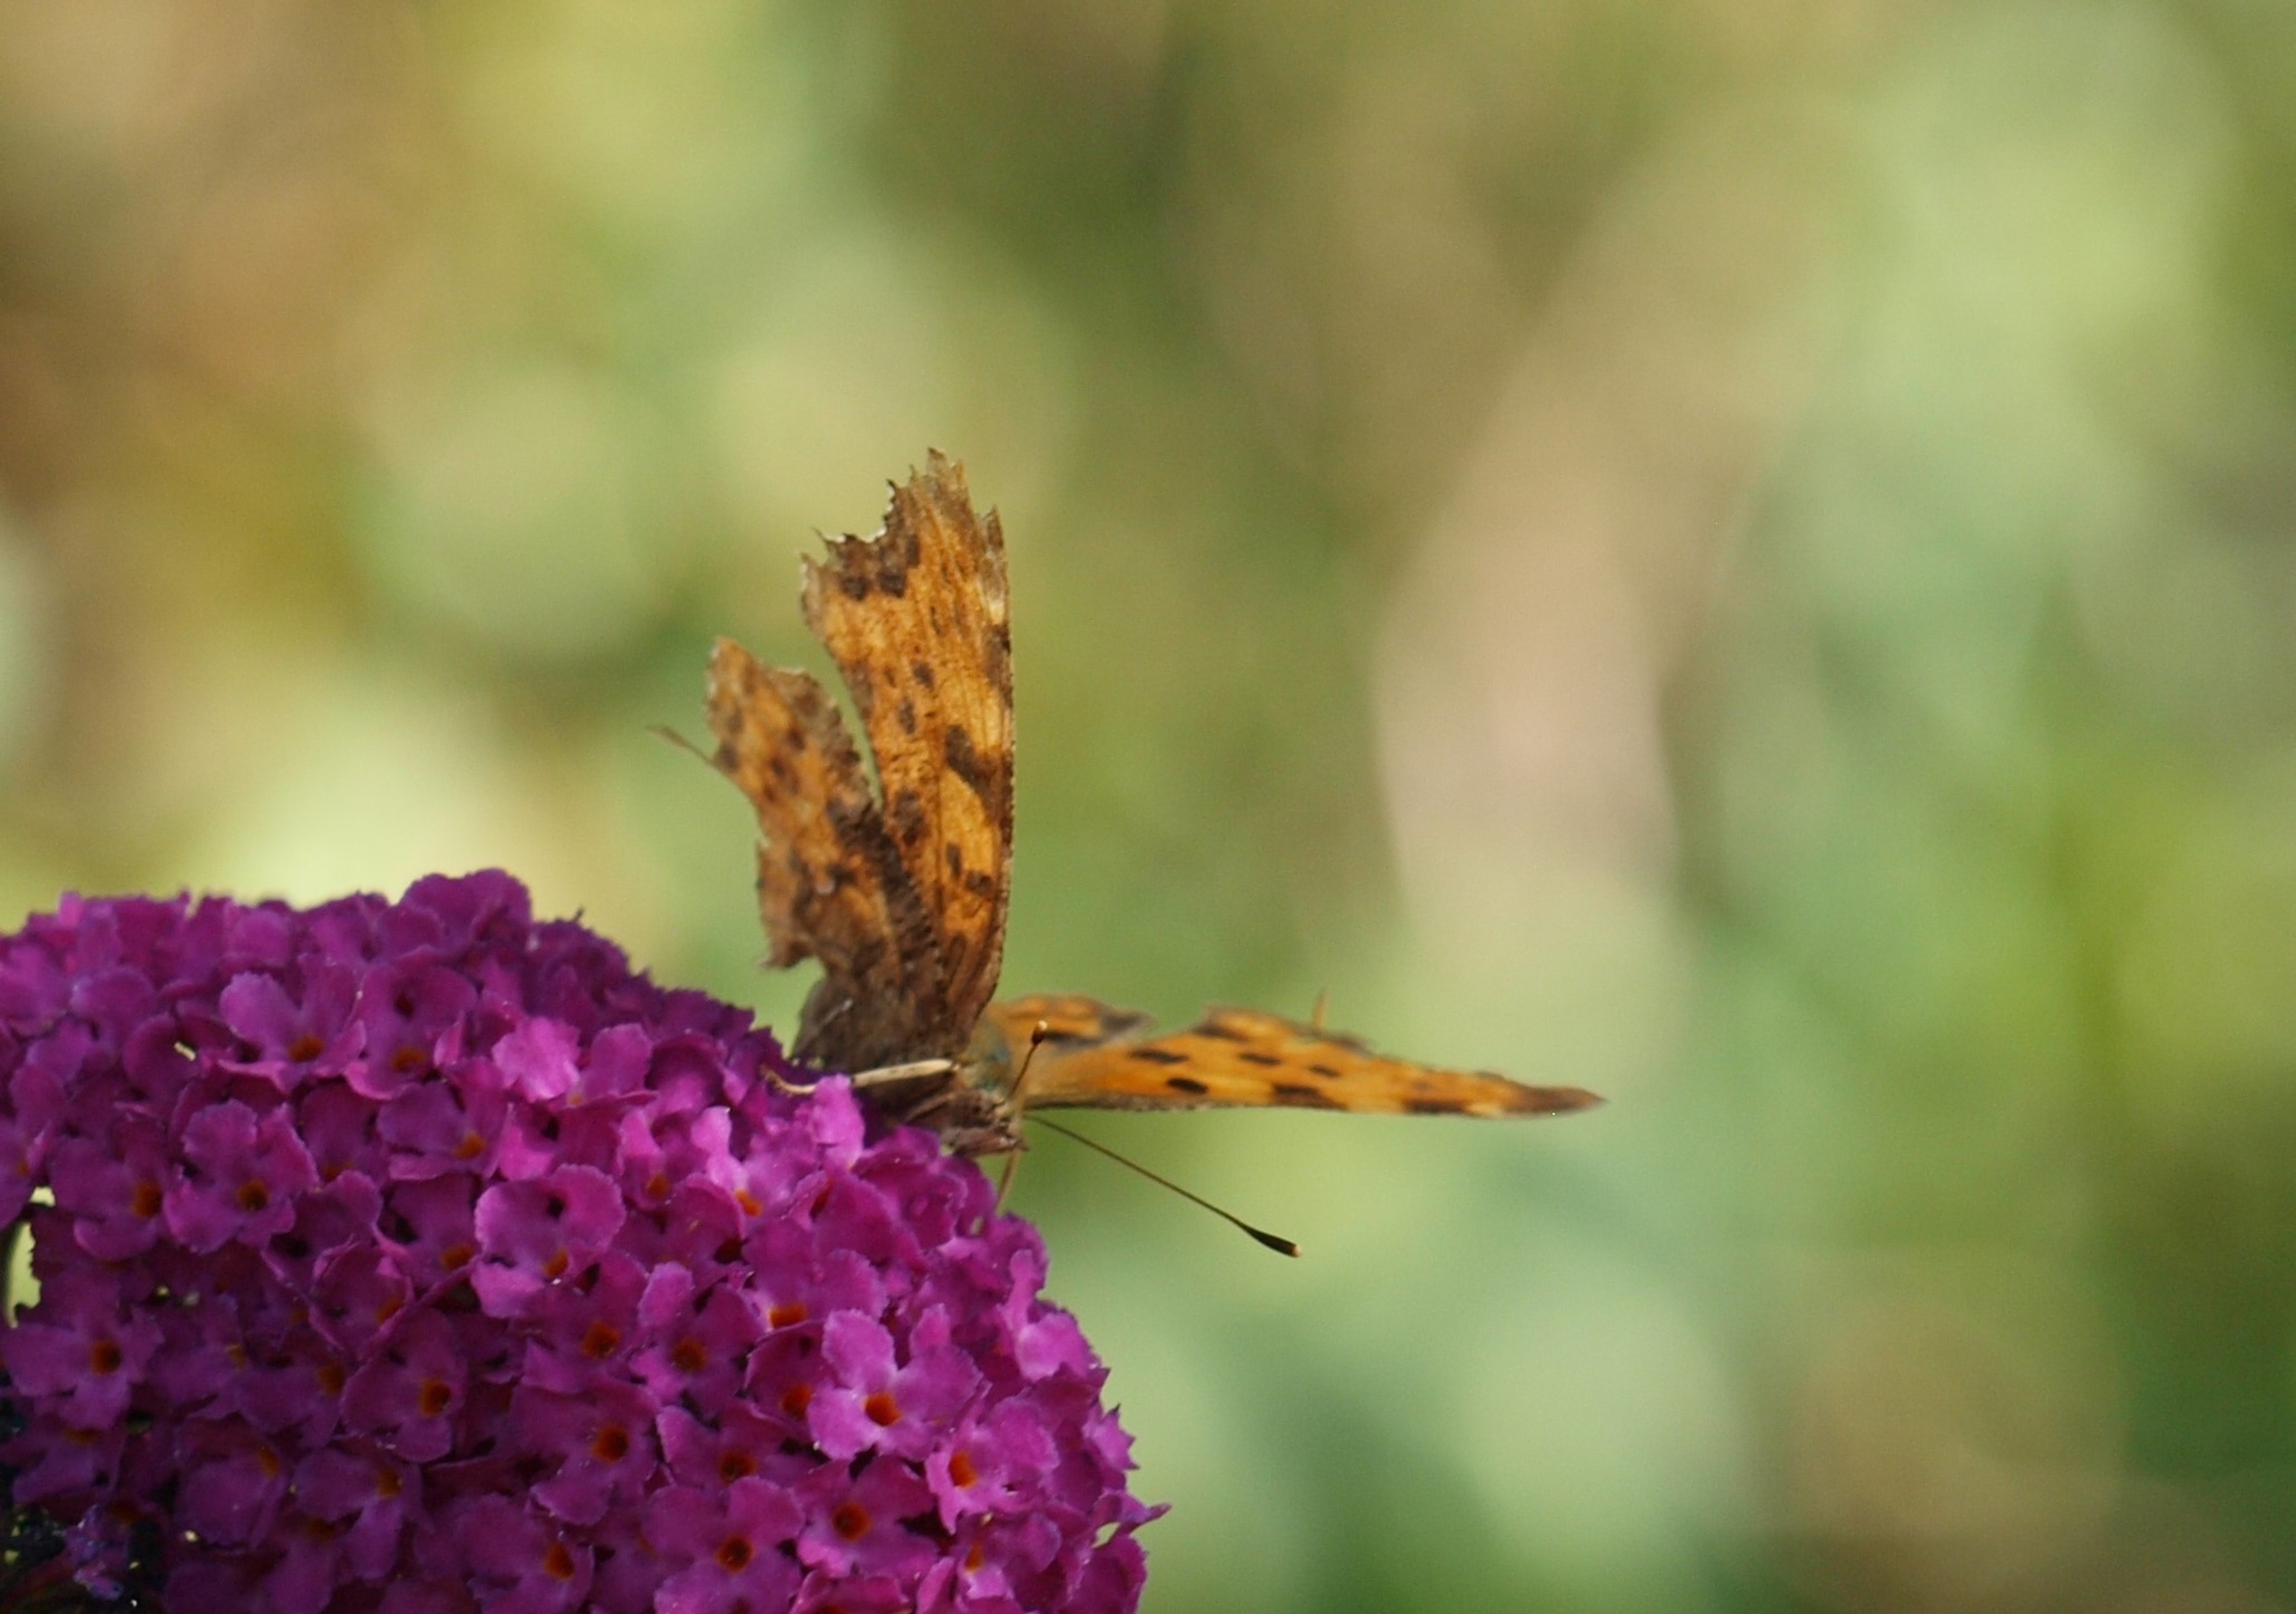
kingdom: Animalia
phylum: Arthropoda
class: Insecta
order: Lepidoptera
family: Nymphalidae
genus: Polygonia
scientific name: Polygonia c-album
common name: Det hvide C
